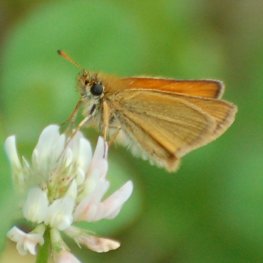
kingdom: Animalia
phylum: Arthropoda
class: Insecta
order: Lepidoptera
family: Hesperiidae
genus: Thymelicus
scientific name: Thymelicus lineola
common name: European Skipper
